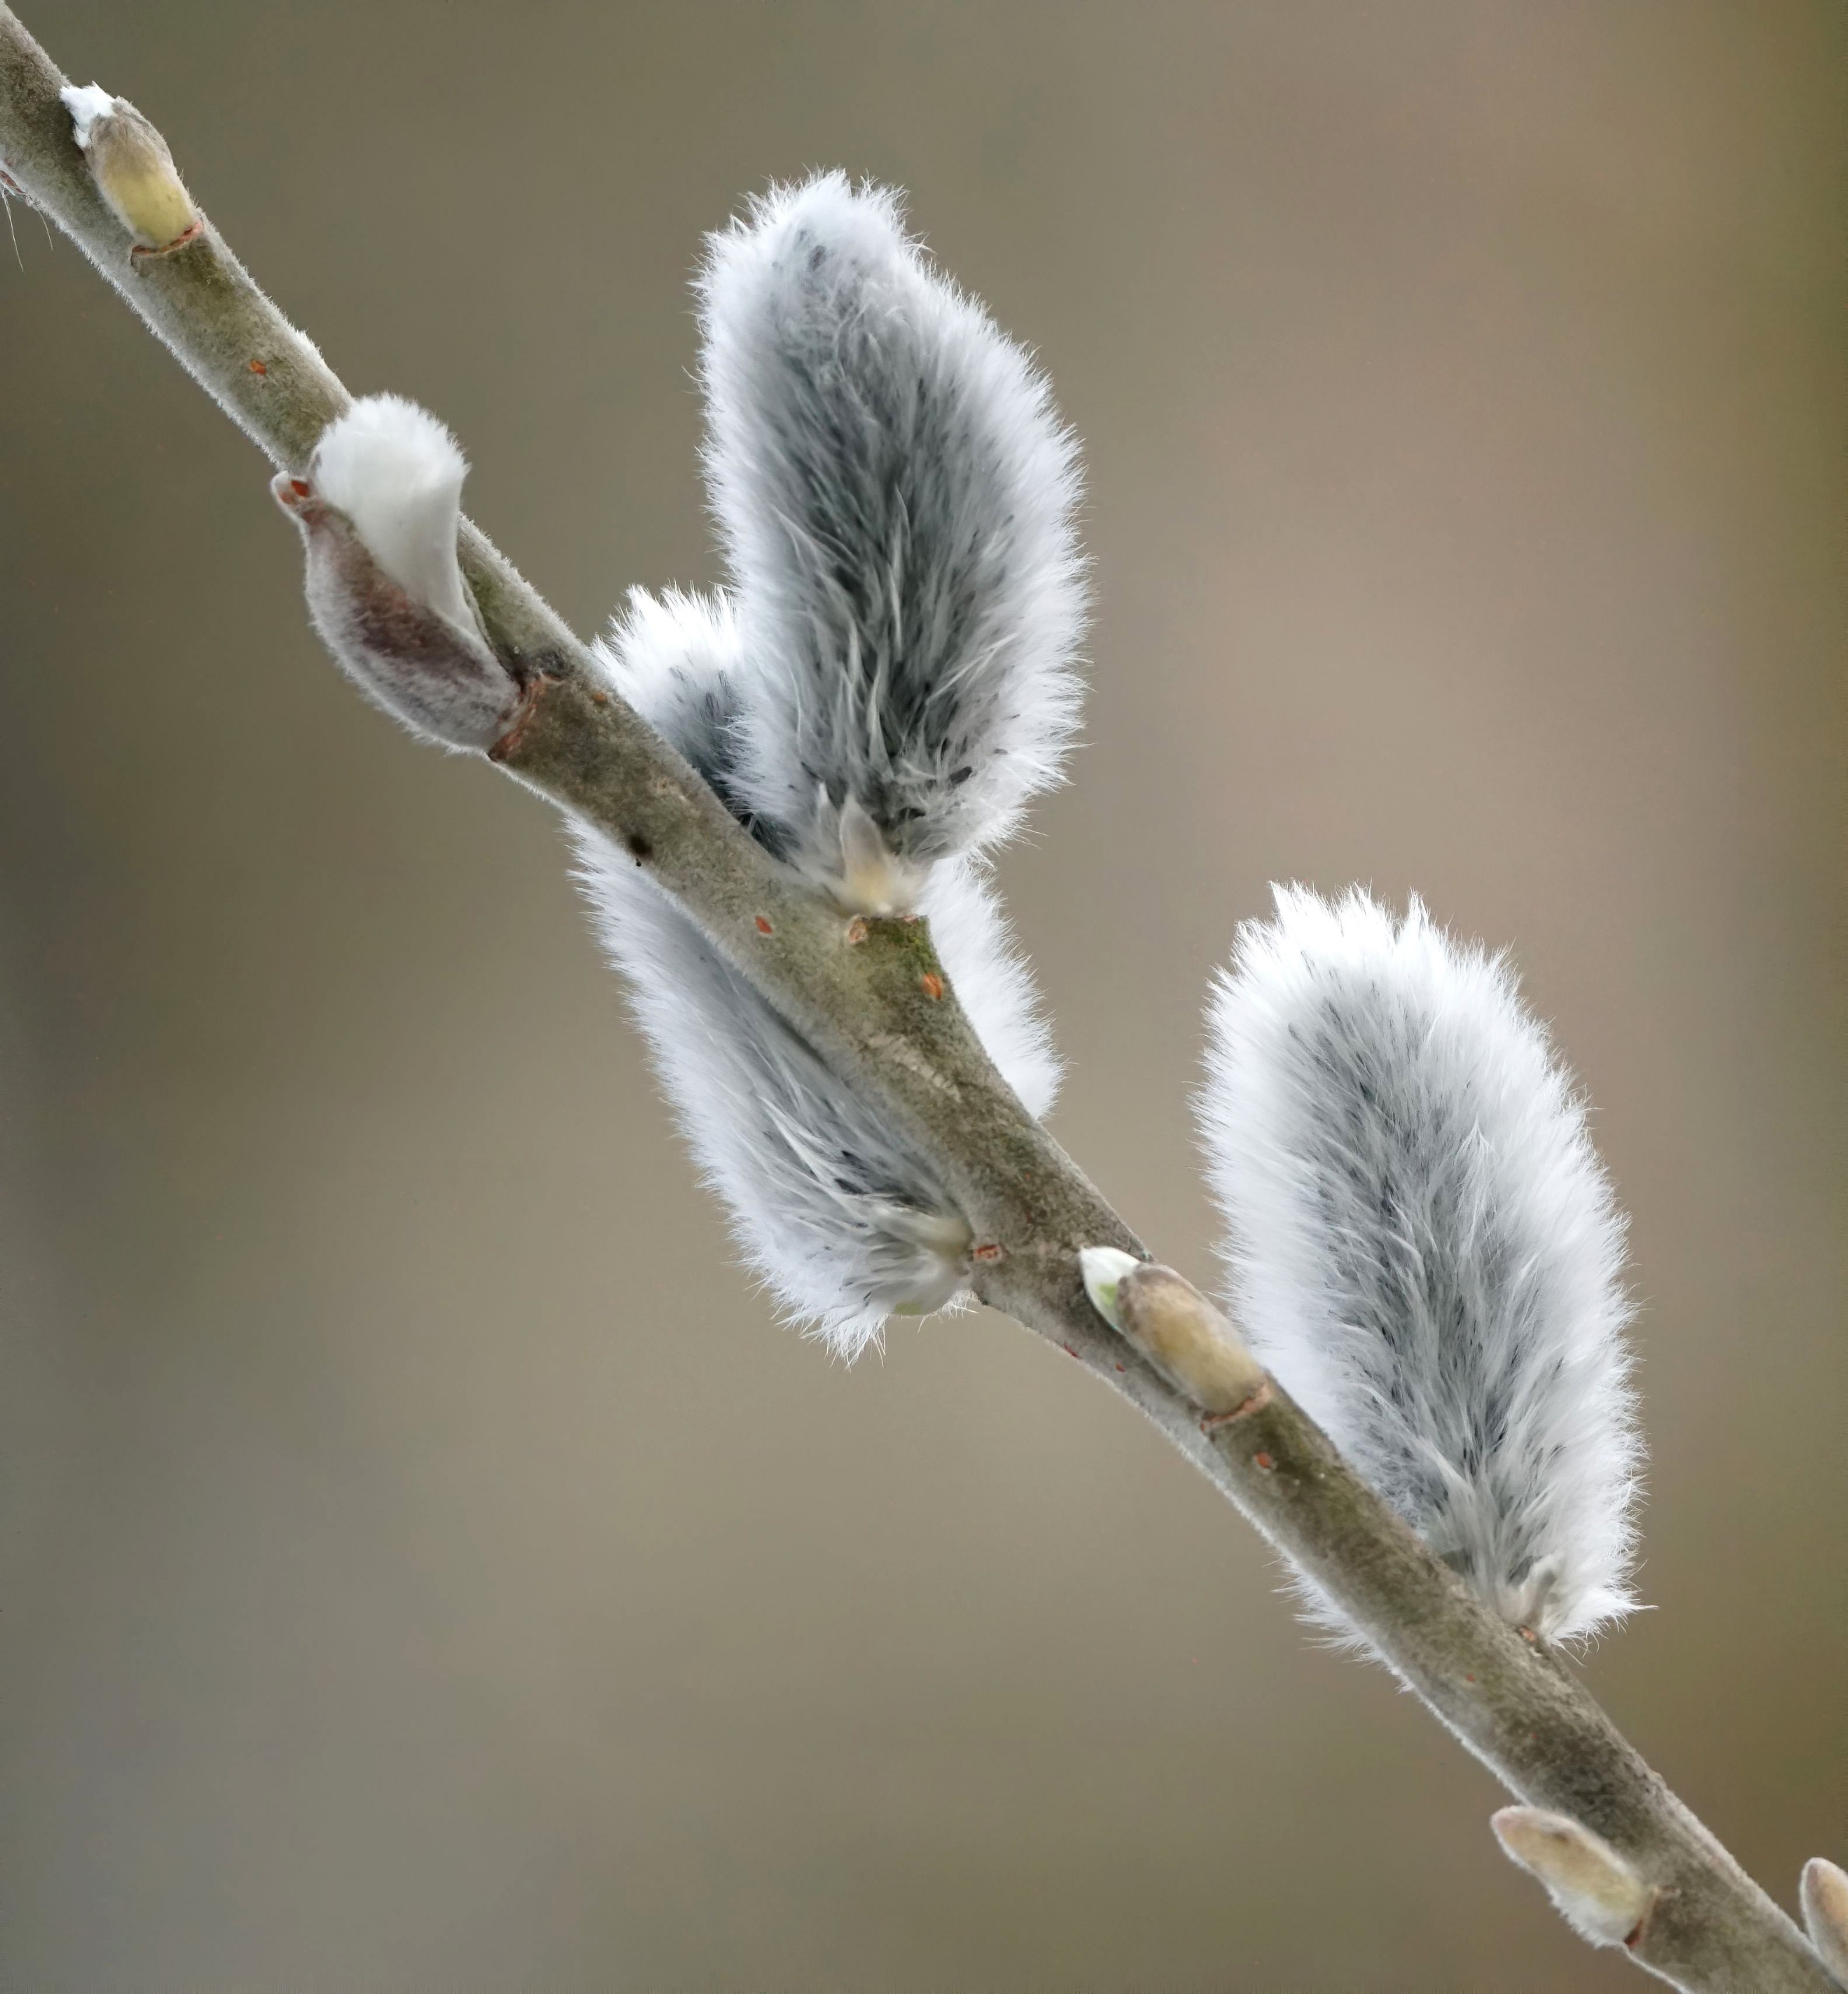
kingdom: Plantae
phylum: Tracheophyta
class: Magnoliopsida
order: Malpighiales
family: Salicaceae
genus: Salix
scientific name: Salix
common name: Pileslægten
